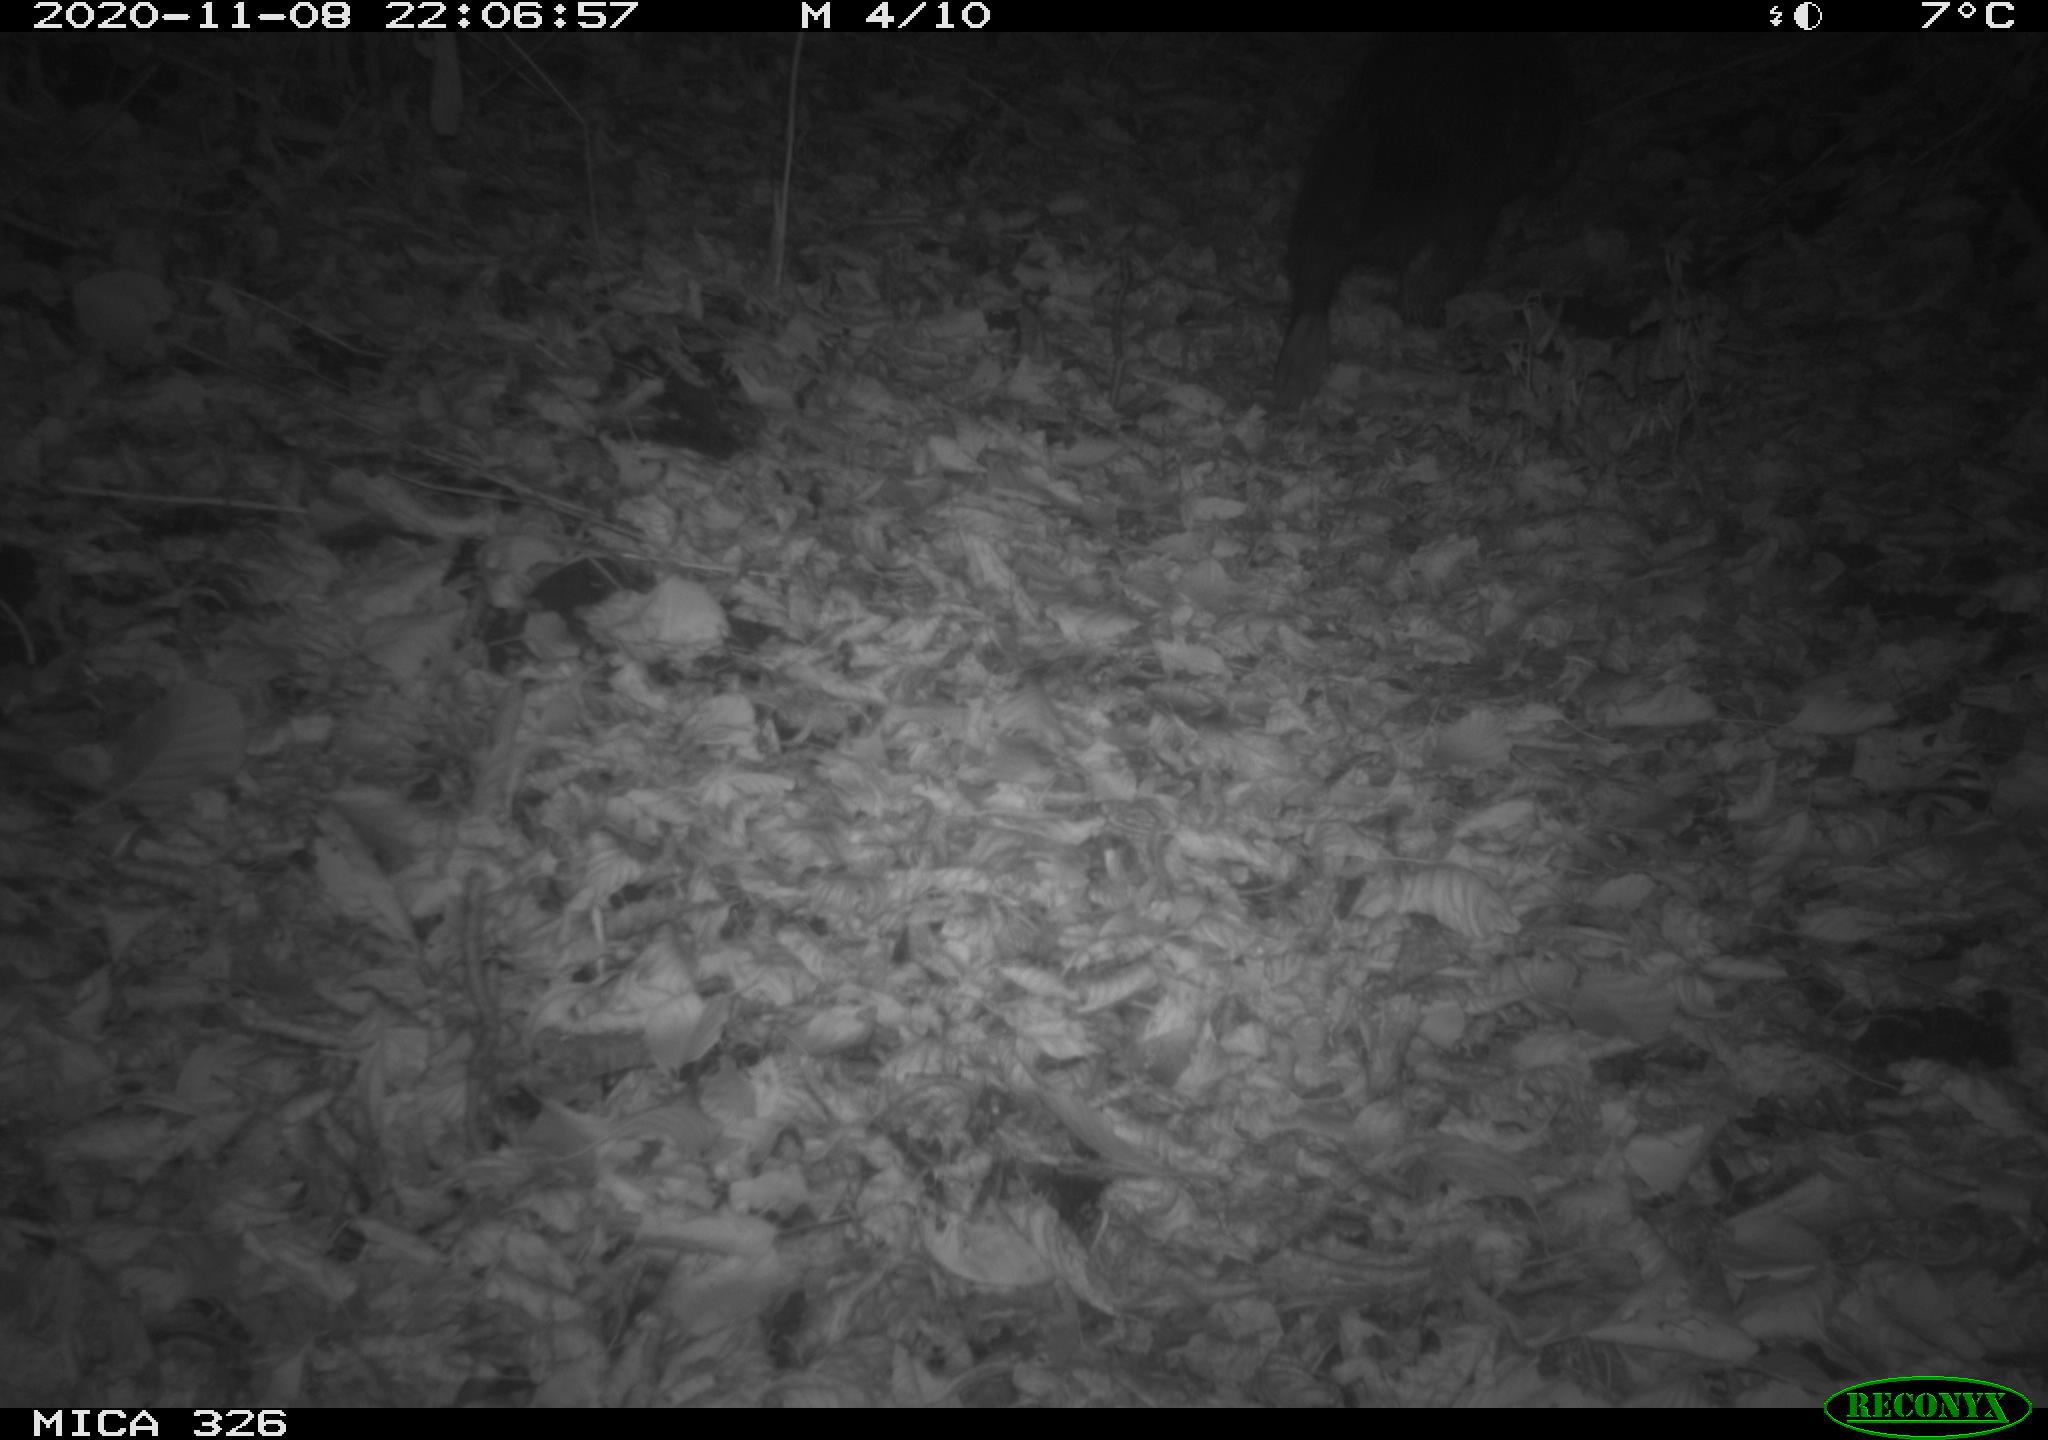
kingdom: Animalia
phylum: Chordata
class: Mammalia
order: Carnivora
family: Mustelidae
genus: Lutra
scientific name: Lutra lutra
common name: European otter
